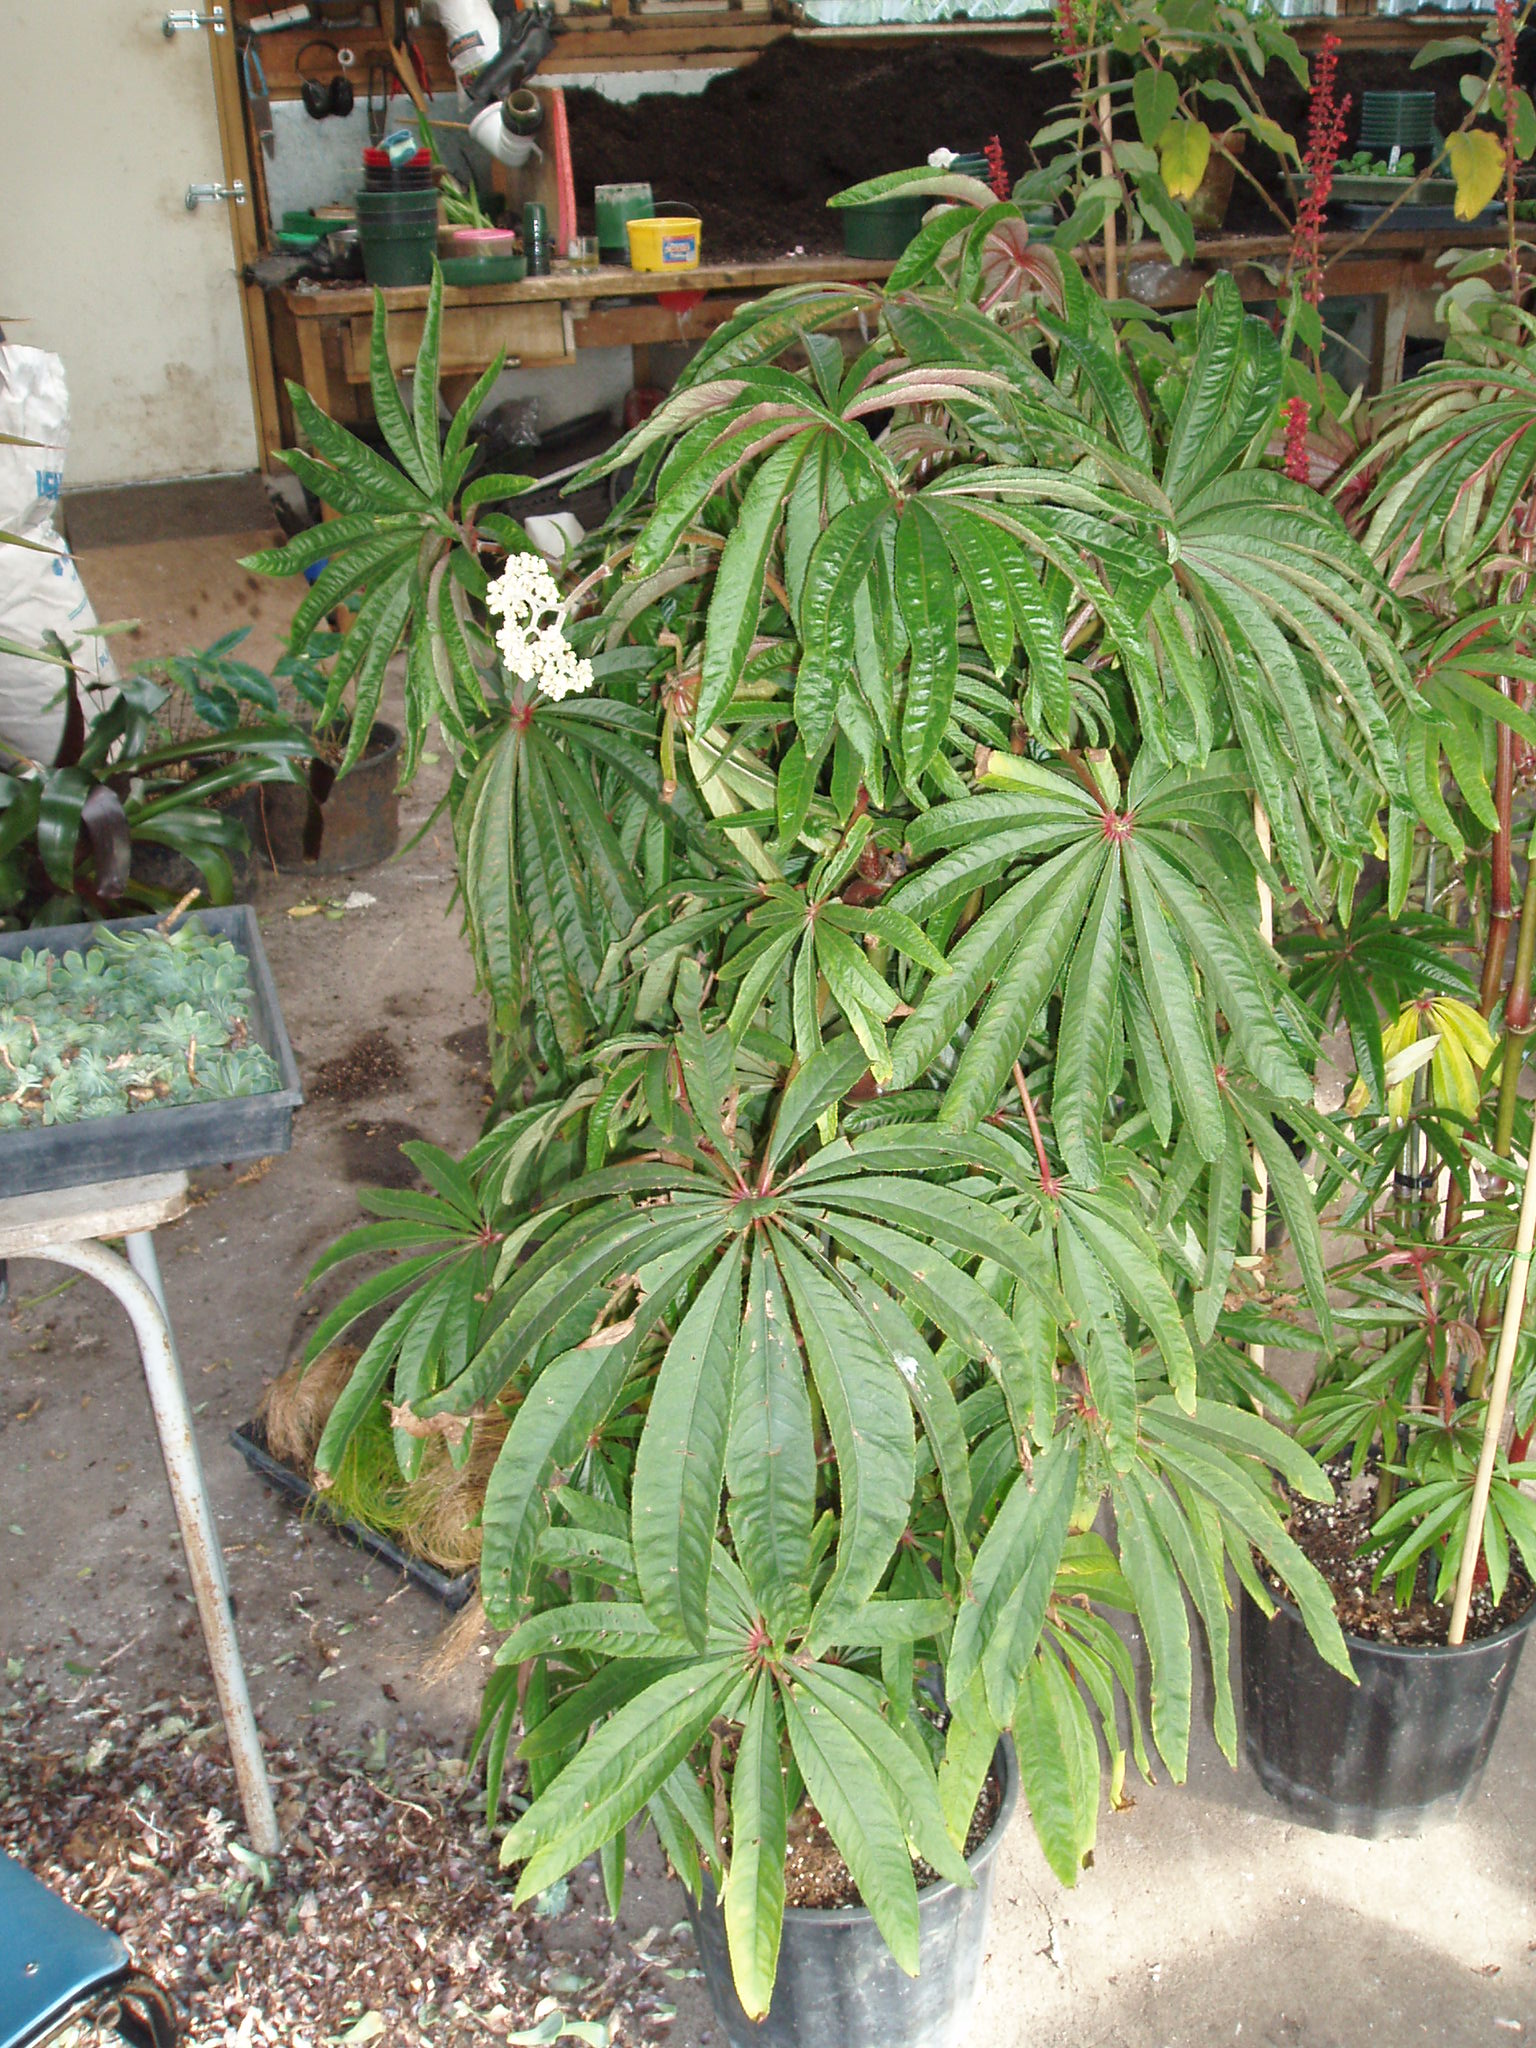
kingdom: Plantae
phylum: Tracheophyta
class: Magnoliopsida
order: Cucurbitales
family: Begoniaceae
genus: Begonia
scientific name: Begonia luxurians
